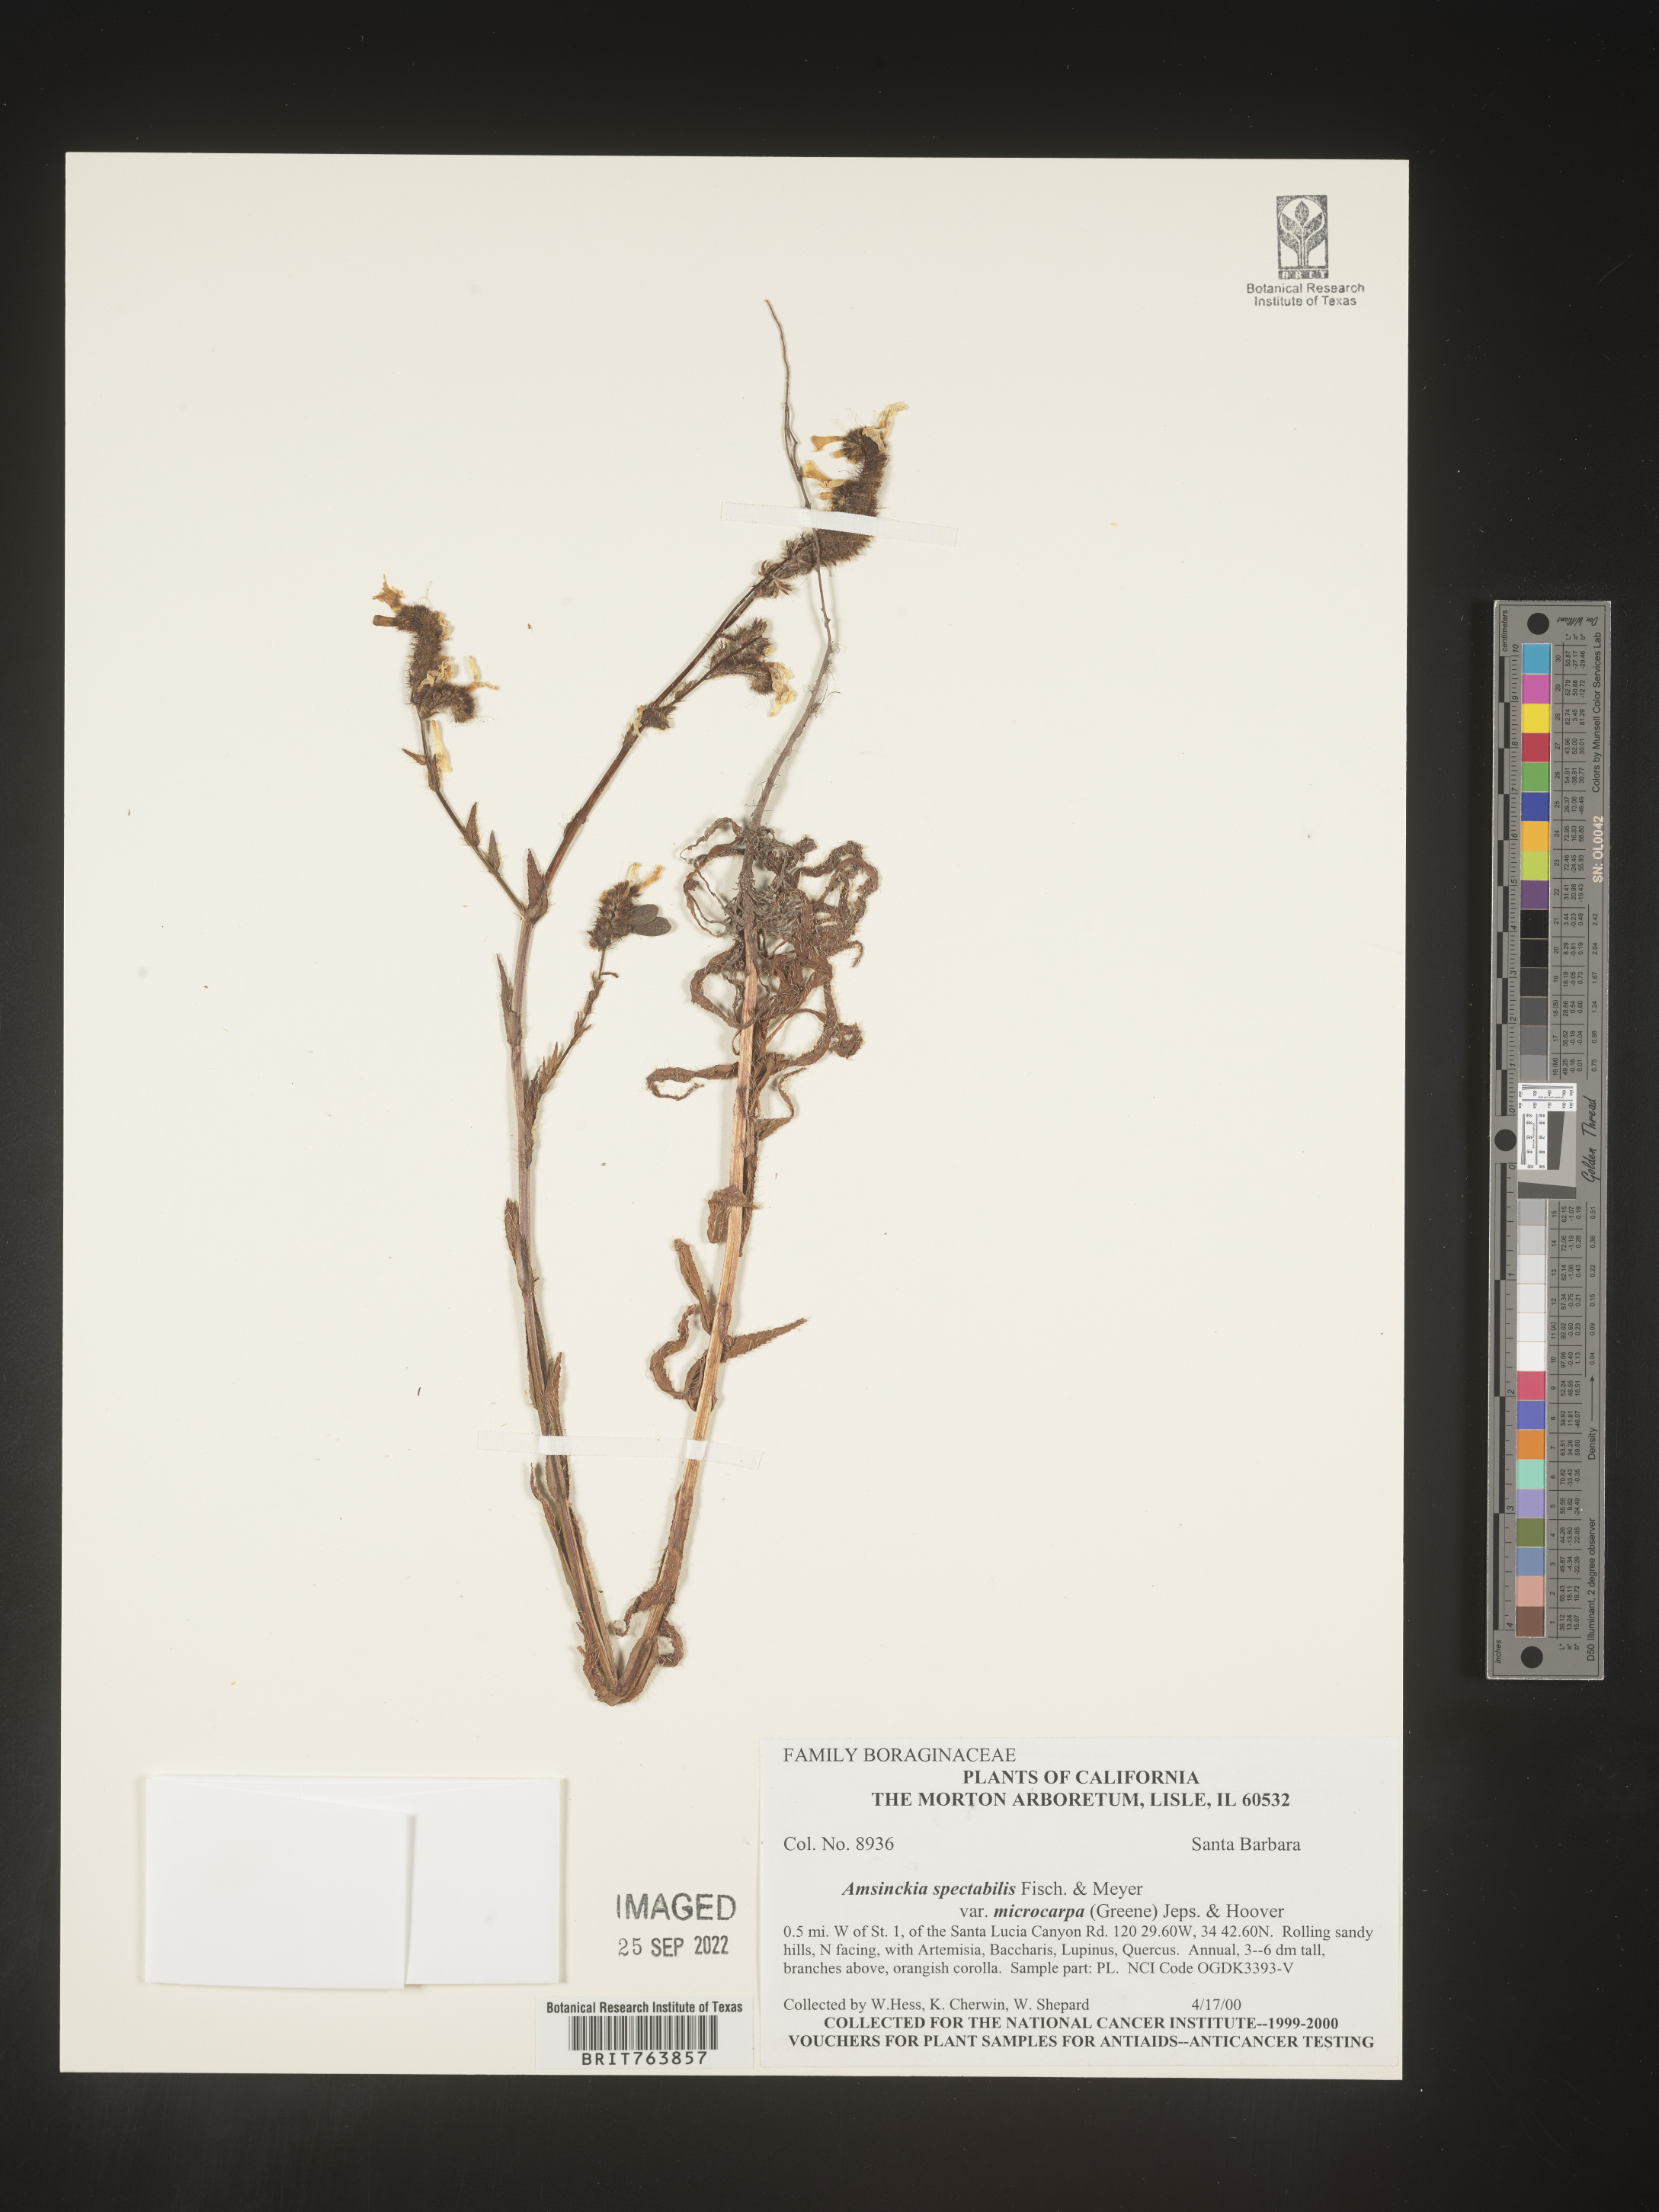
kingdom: Plantae
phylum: Tracheophyta
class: Magnoliopsida
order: Boraginales
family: Boraginaceae
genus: Amsinckia
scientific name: Amsinckia
